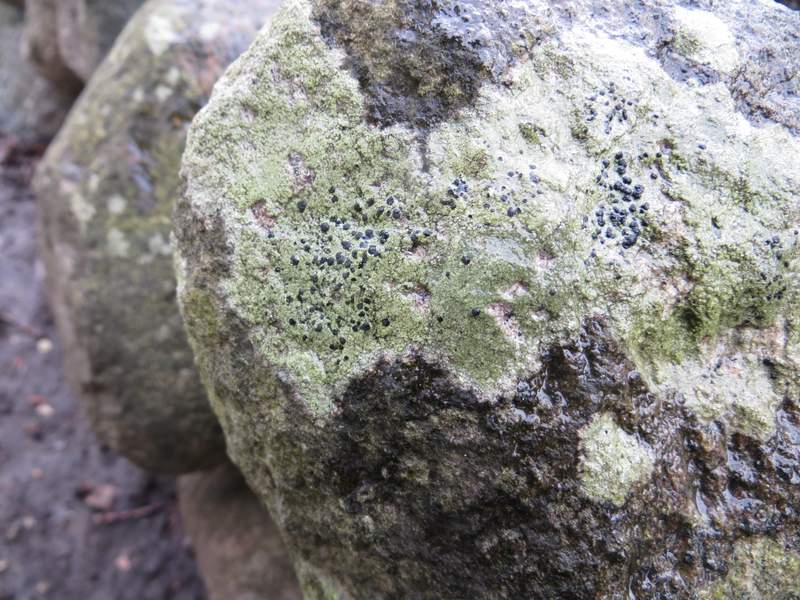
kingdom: Fungi
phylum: Ascomycota
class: Lecanoromycetes
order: Lecanorales
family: Lecanoraceae
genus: Lecidella
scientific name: Lecidella scabra
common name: skurvet skivelav
